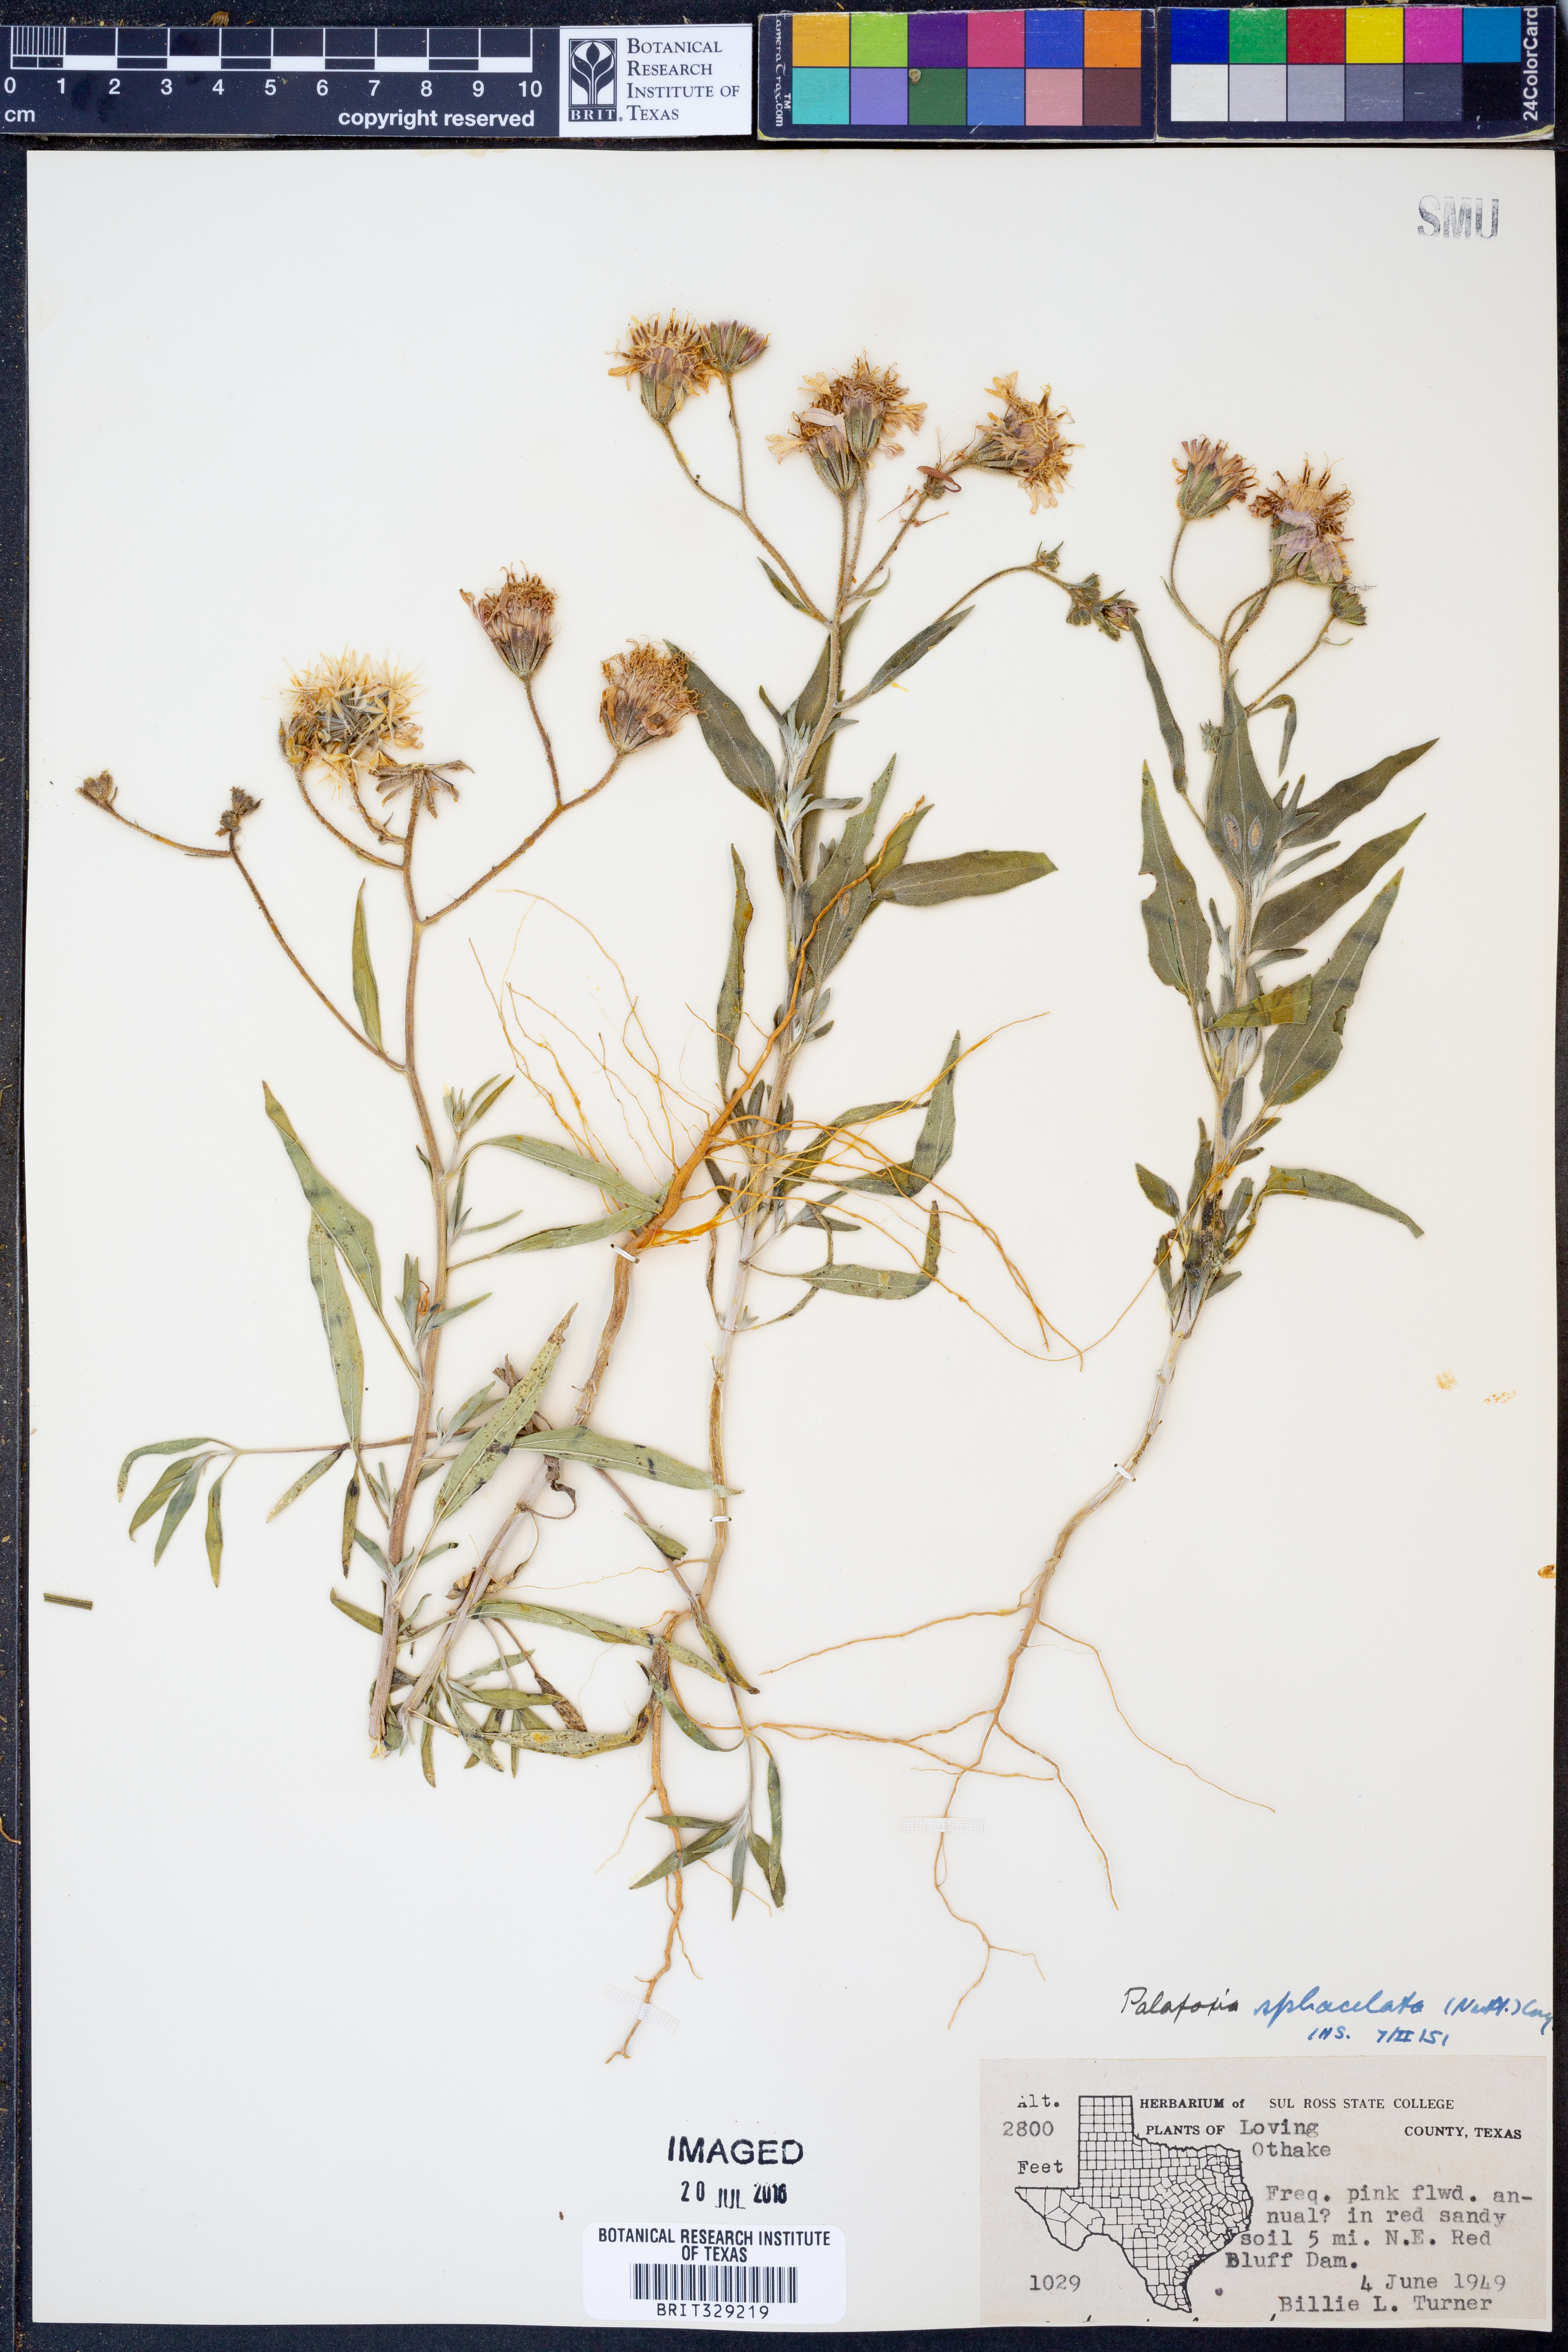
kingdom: Plantae
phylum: Tracheophyta
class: Magnoliopsida
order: Asterales
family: Asteraceae
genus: Palafoxia
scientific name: Palafoxia sphacelata
